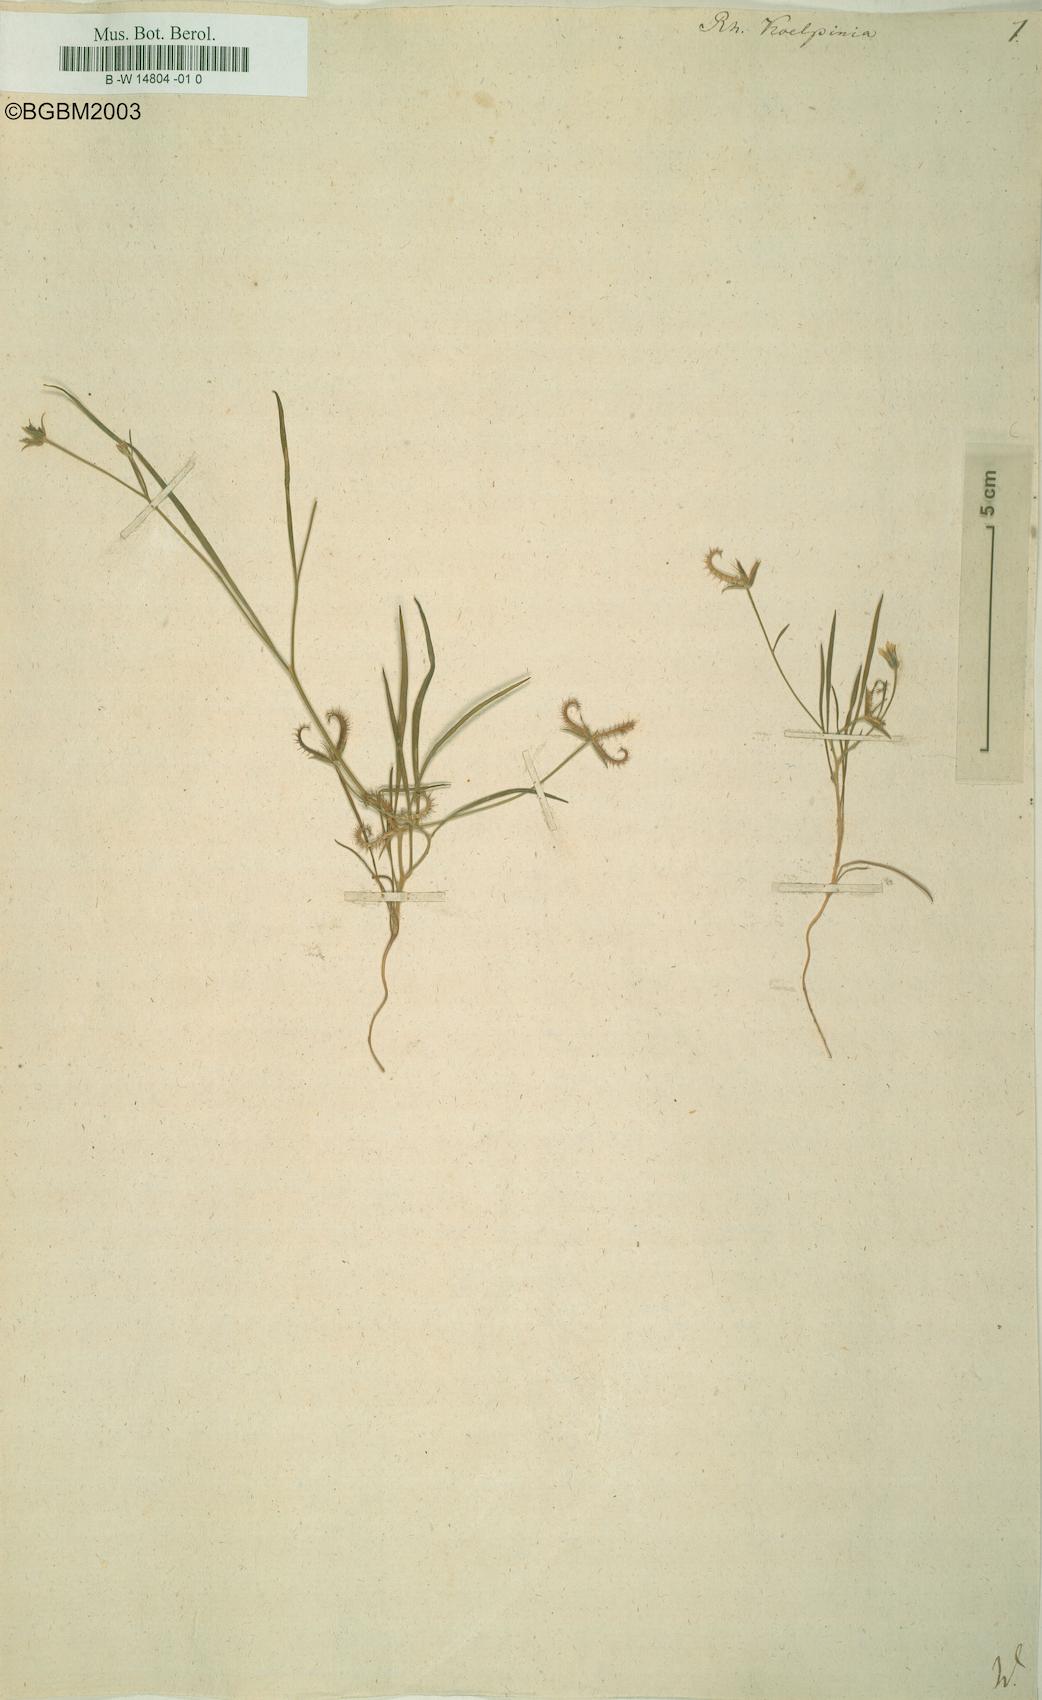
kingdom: Plantae
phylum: Tracheophyta
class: Magnoliopsida
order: Asterales
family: Asteraceae
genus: Koelpinia
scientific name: Koelpinia linearis
